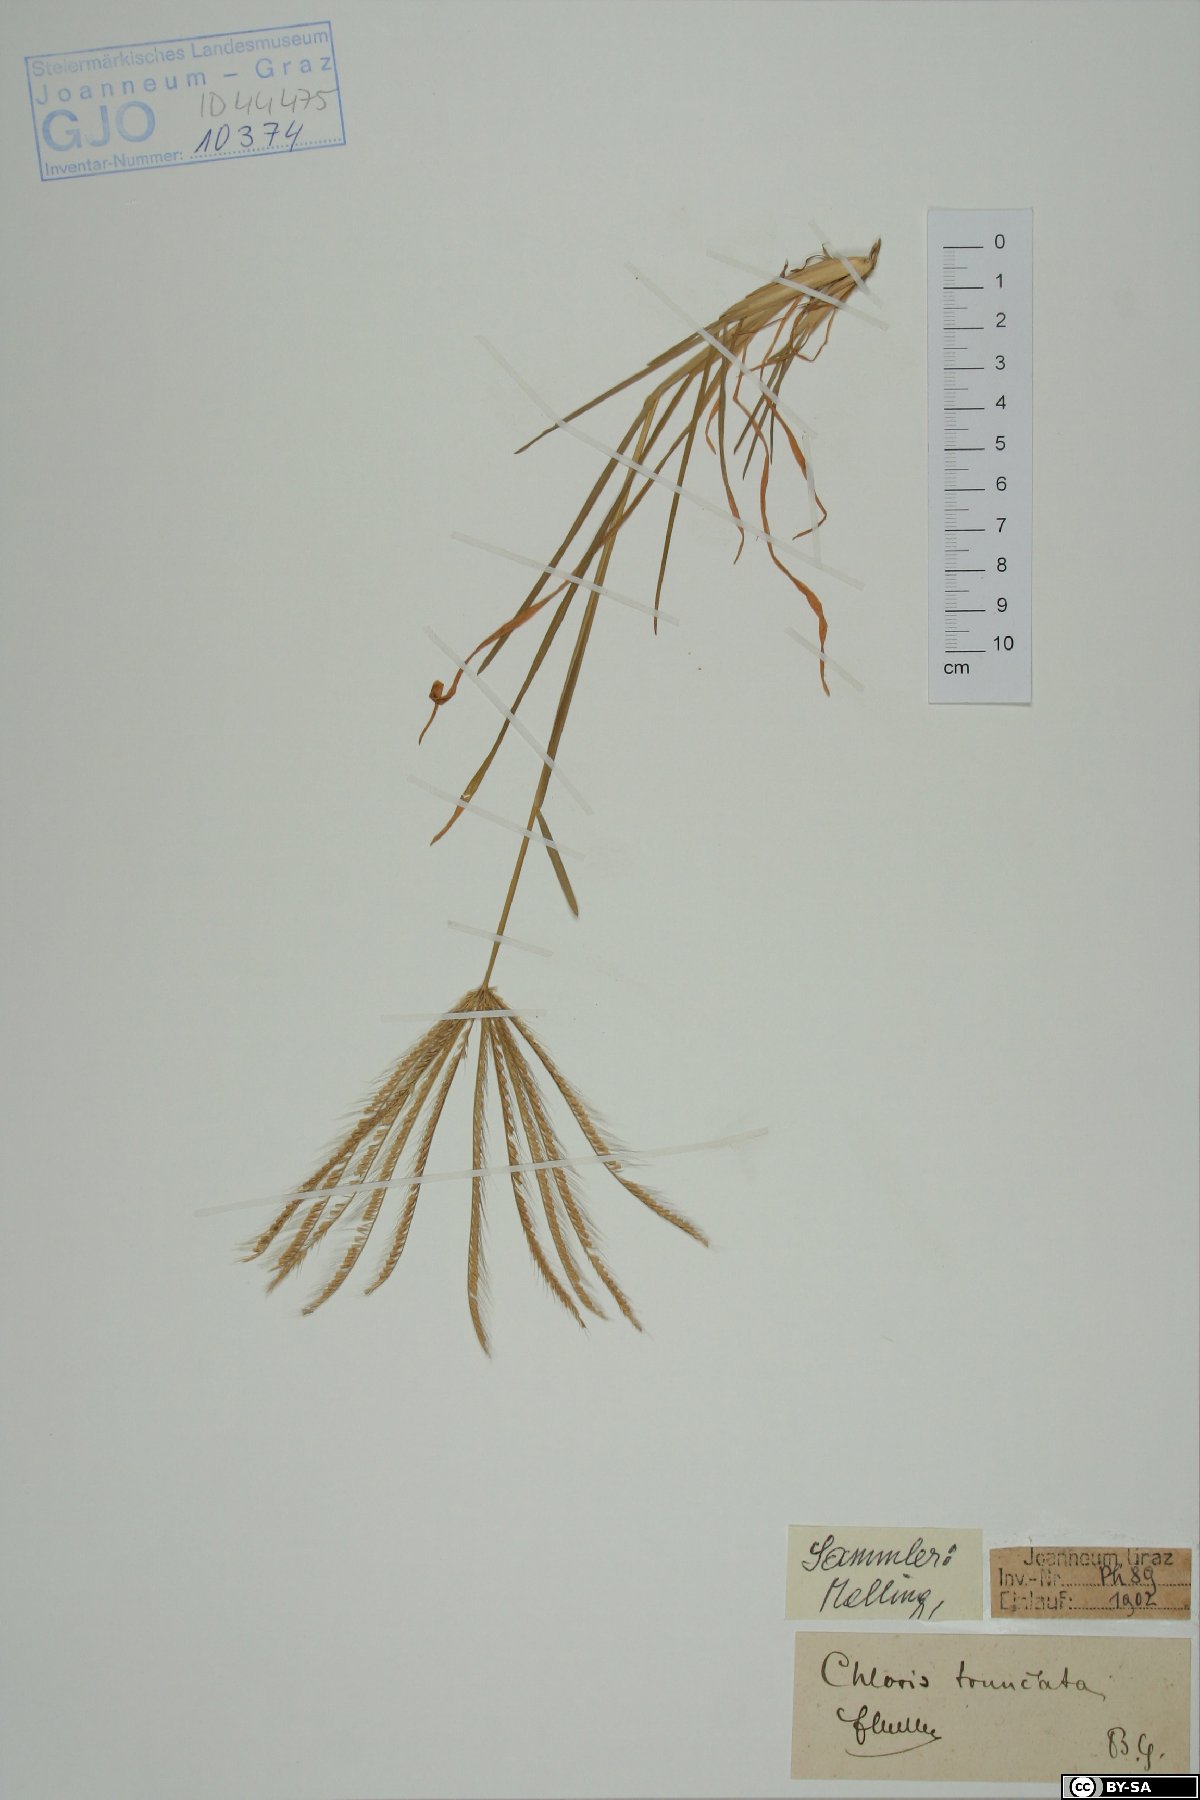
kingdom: Plantae
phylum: Tracheophyta
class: Liliopsida
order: Poales
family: Poaceae
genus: Chloris
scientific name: Chloris truncata
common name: Windmill-grass
